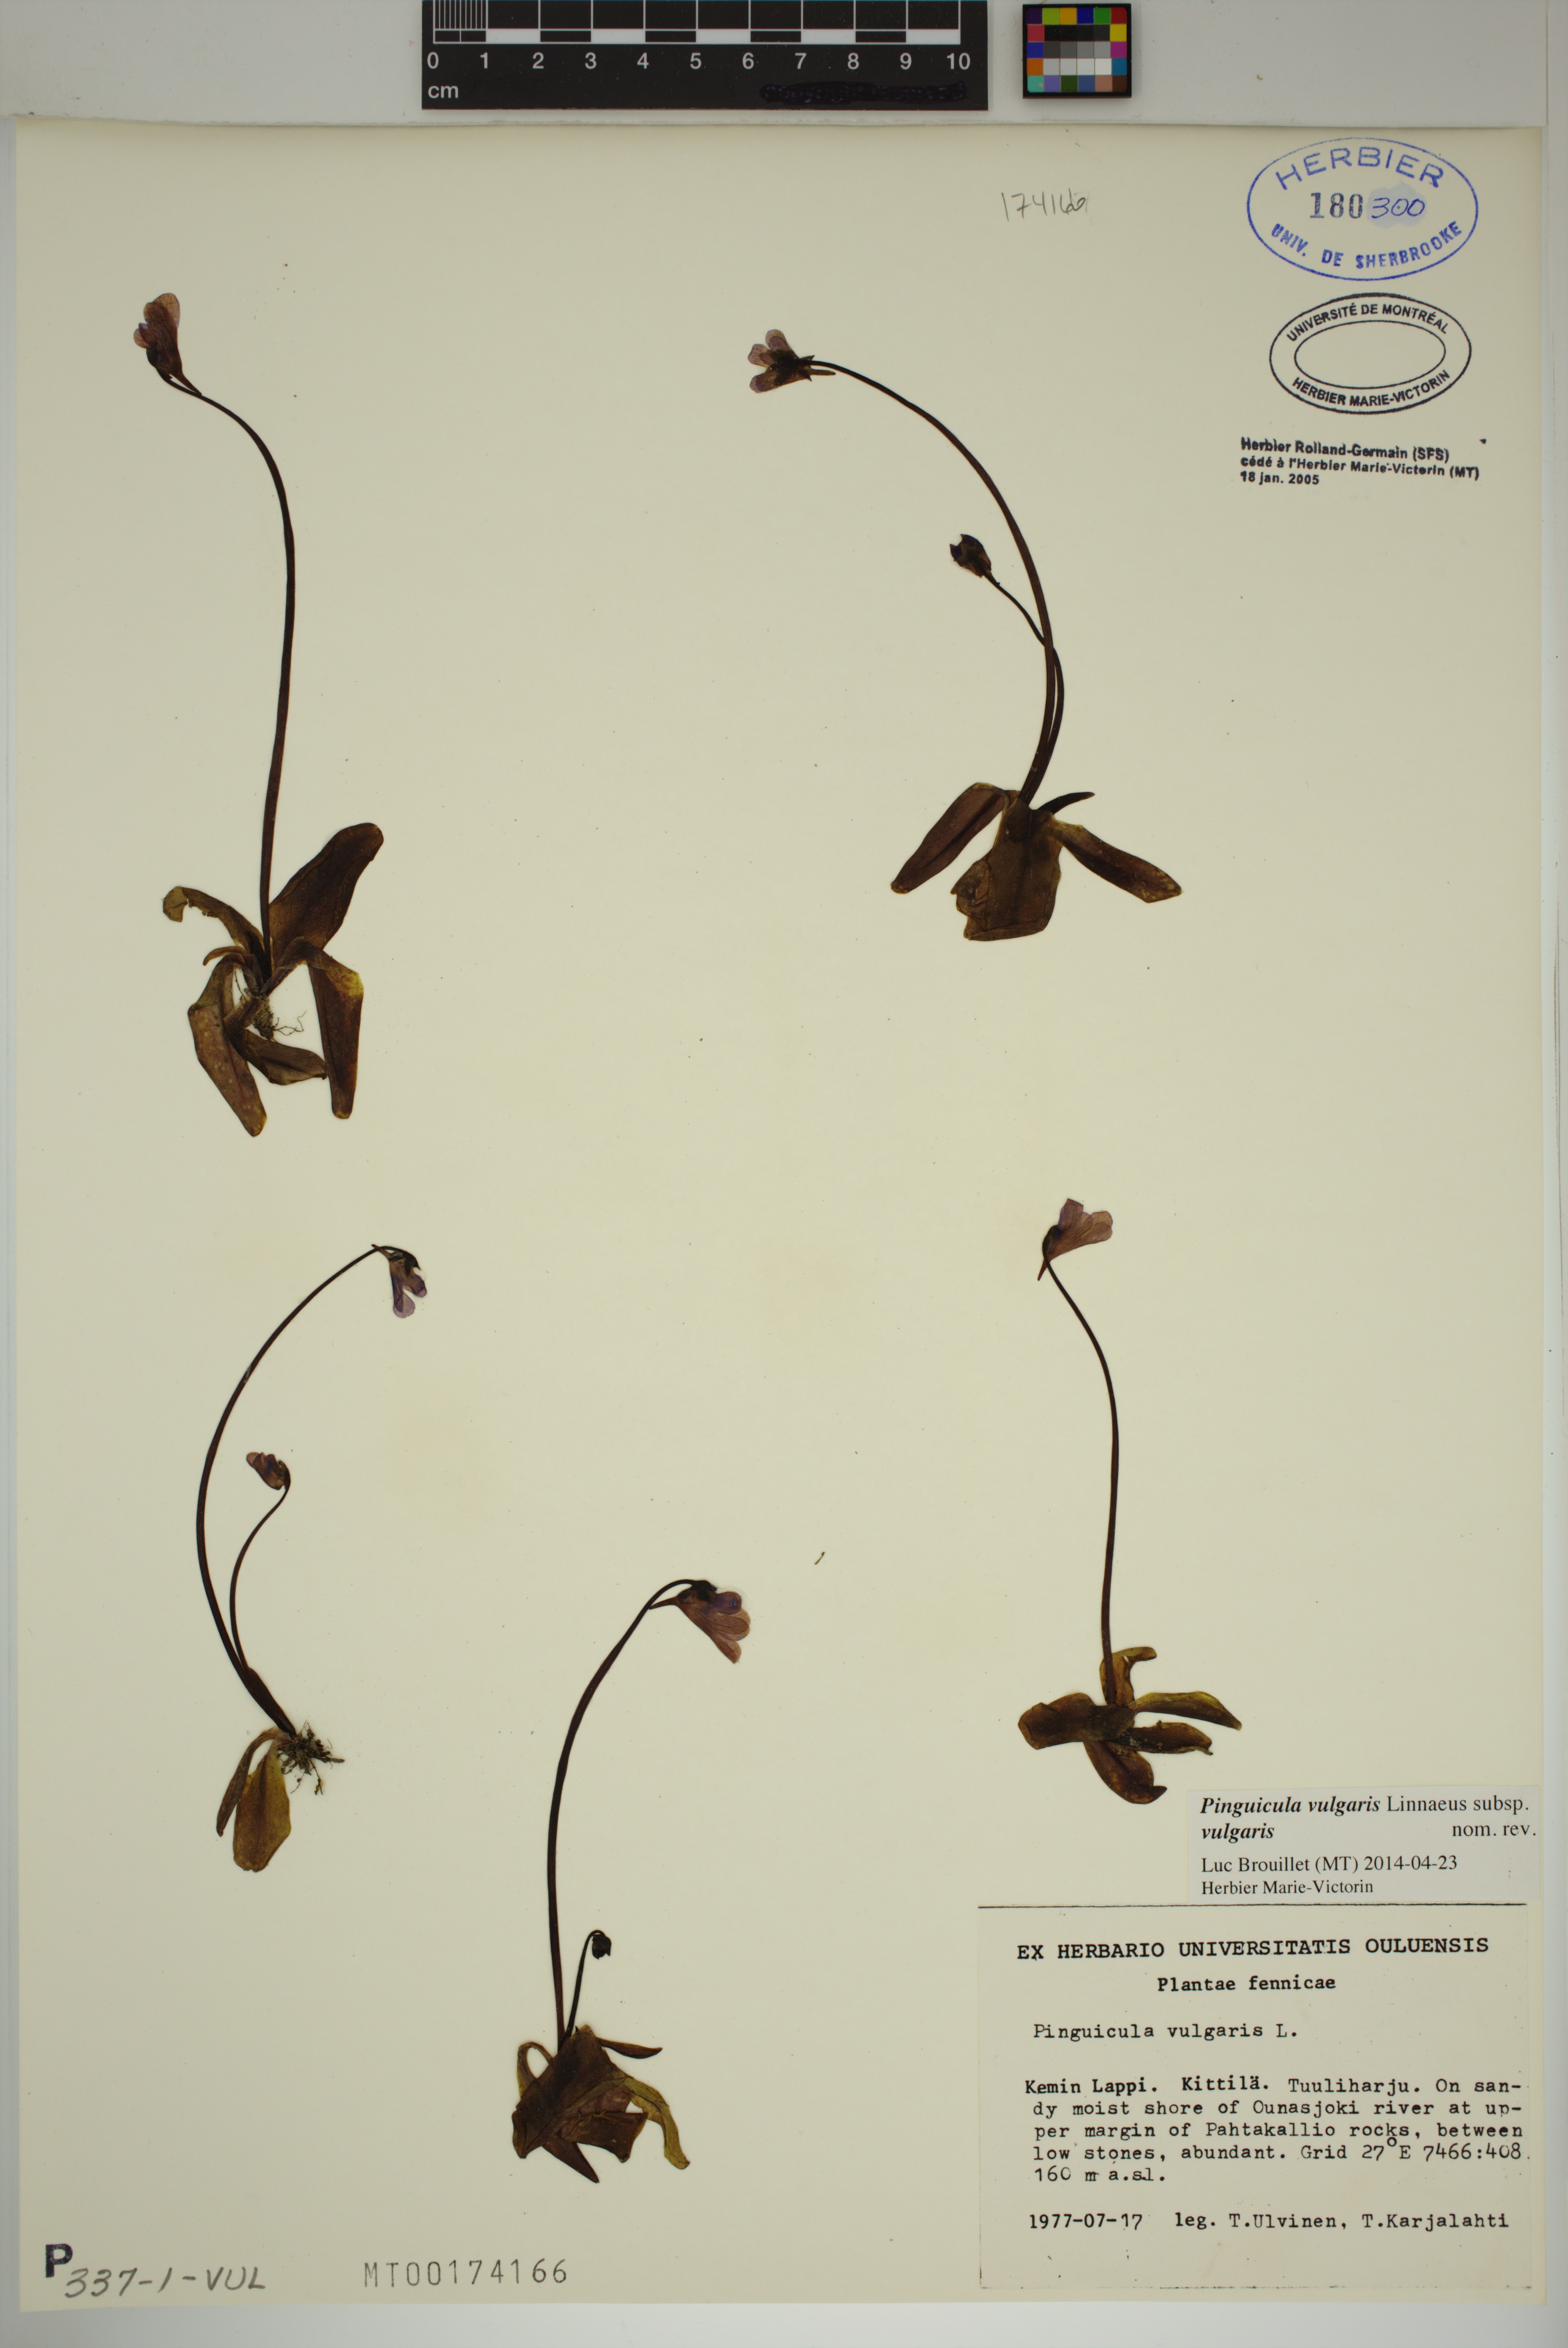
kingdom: Plantae
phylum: Tracheophyta
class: Magnoliopsida
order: Lamiales
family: Lentibulariaceae
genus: Pinguicula
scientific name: Pinguicula vulgaris
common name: Common butterwort
